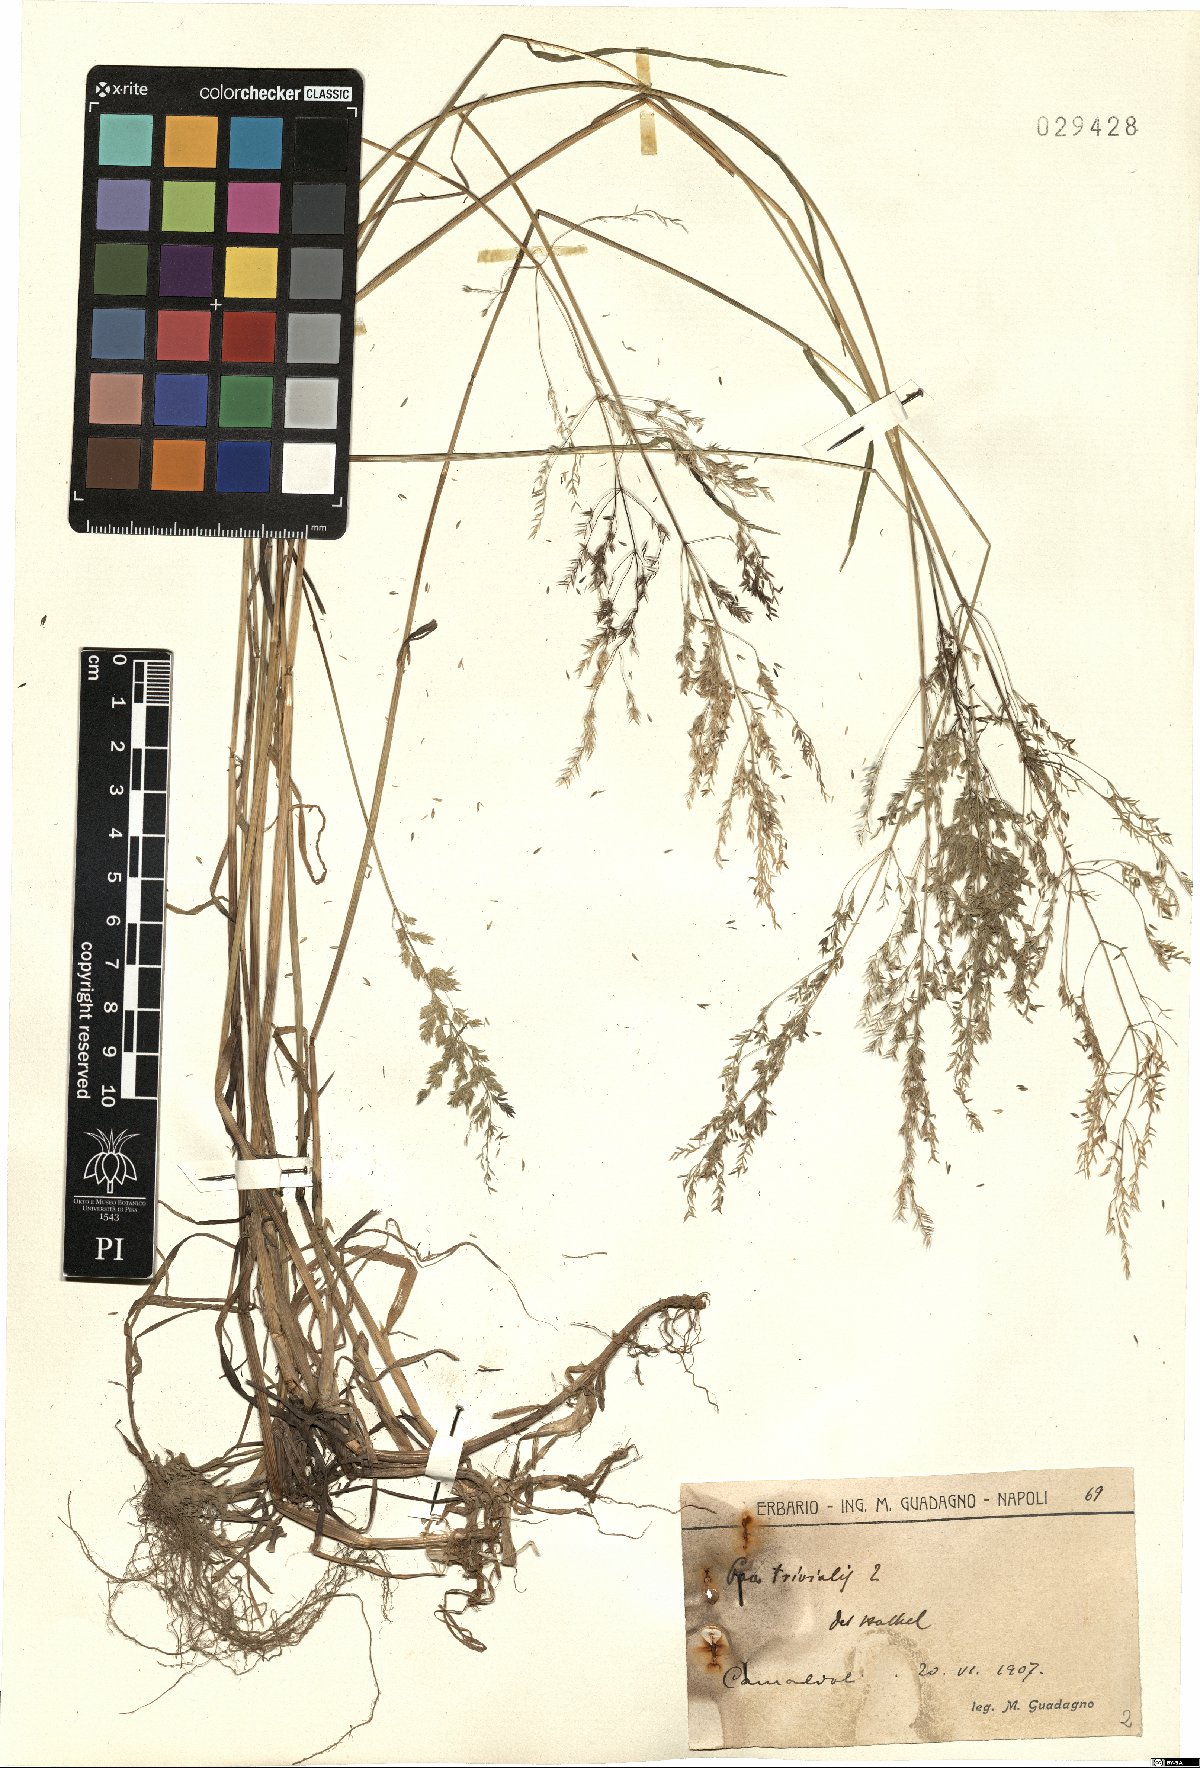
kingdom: Plantae
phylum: Tracheophyta
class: Liliopsida
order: Poales
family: Poaceae
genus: Poa
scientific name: Poa trivialis
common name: Rough bluegrass
